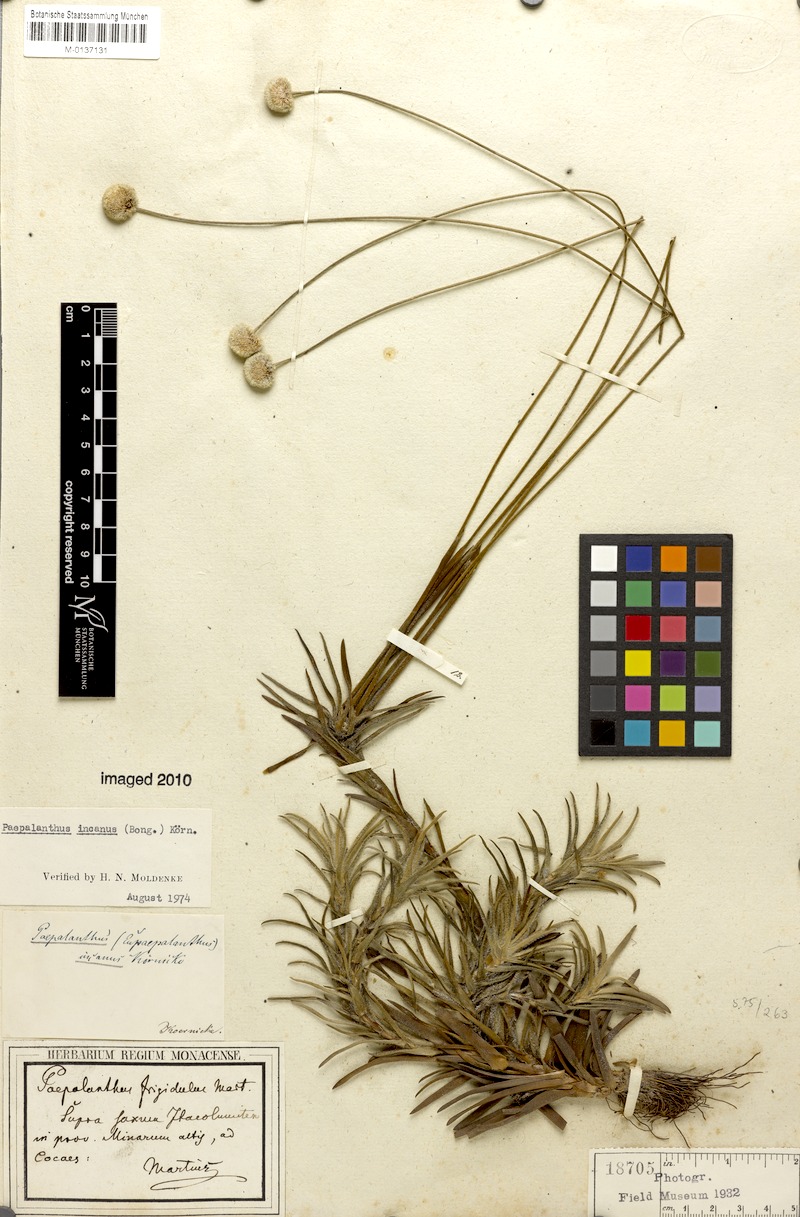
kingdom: Plantae
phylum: Tracheophyta
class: Liliopsida
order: Poales
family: Eriocaulaceae
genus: Paepalanthus
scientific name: Paepalanthus incanus
